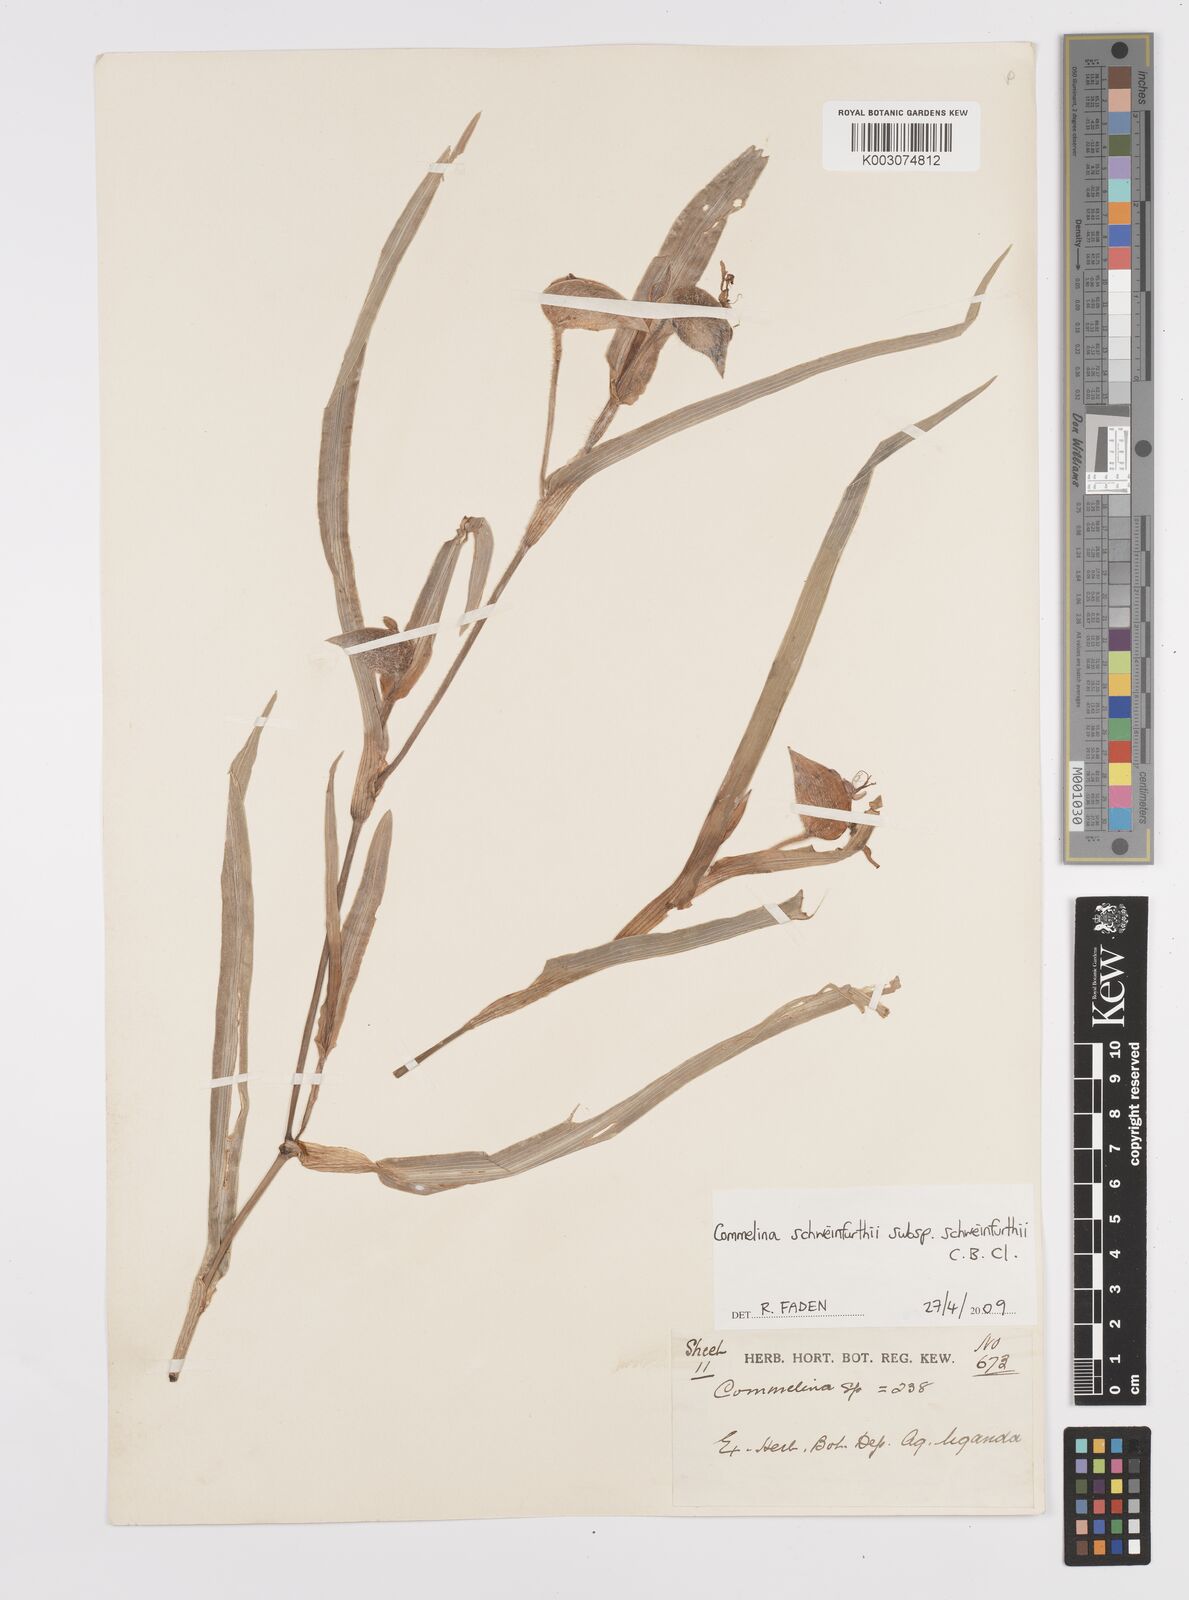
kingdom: Plantae
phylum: Tracheophyta
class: Liliopsida
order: Commelinales
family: Commelinaceae
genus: Commelina
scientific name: Commelina schweinfurthii
